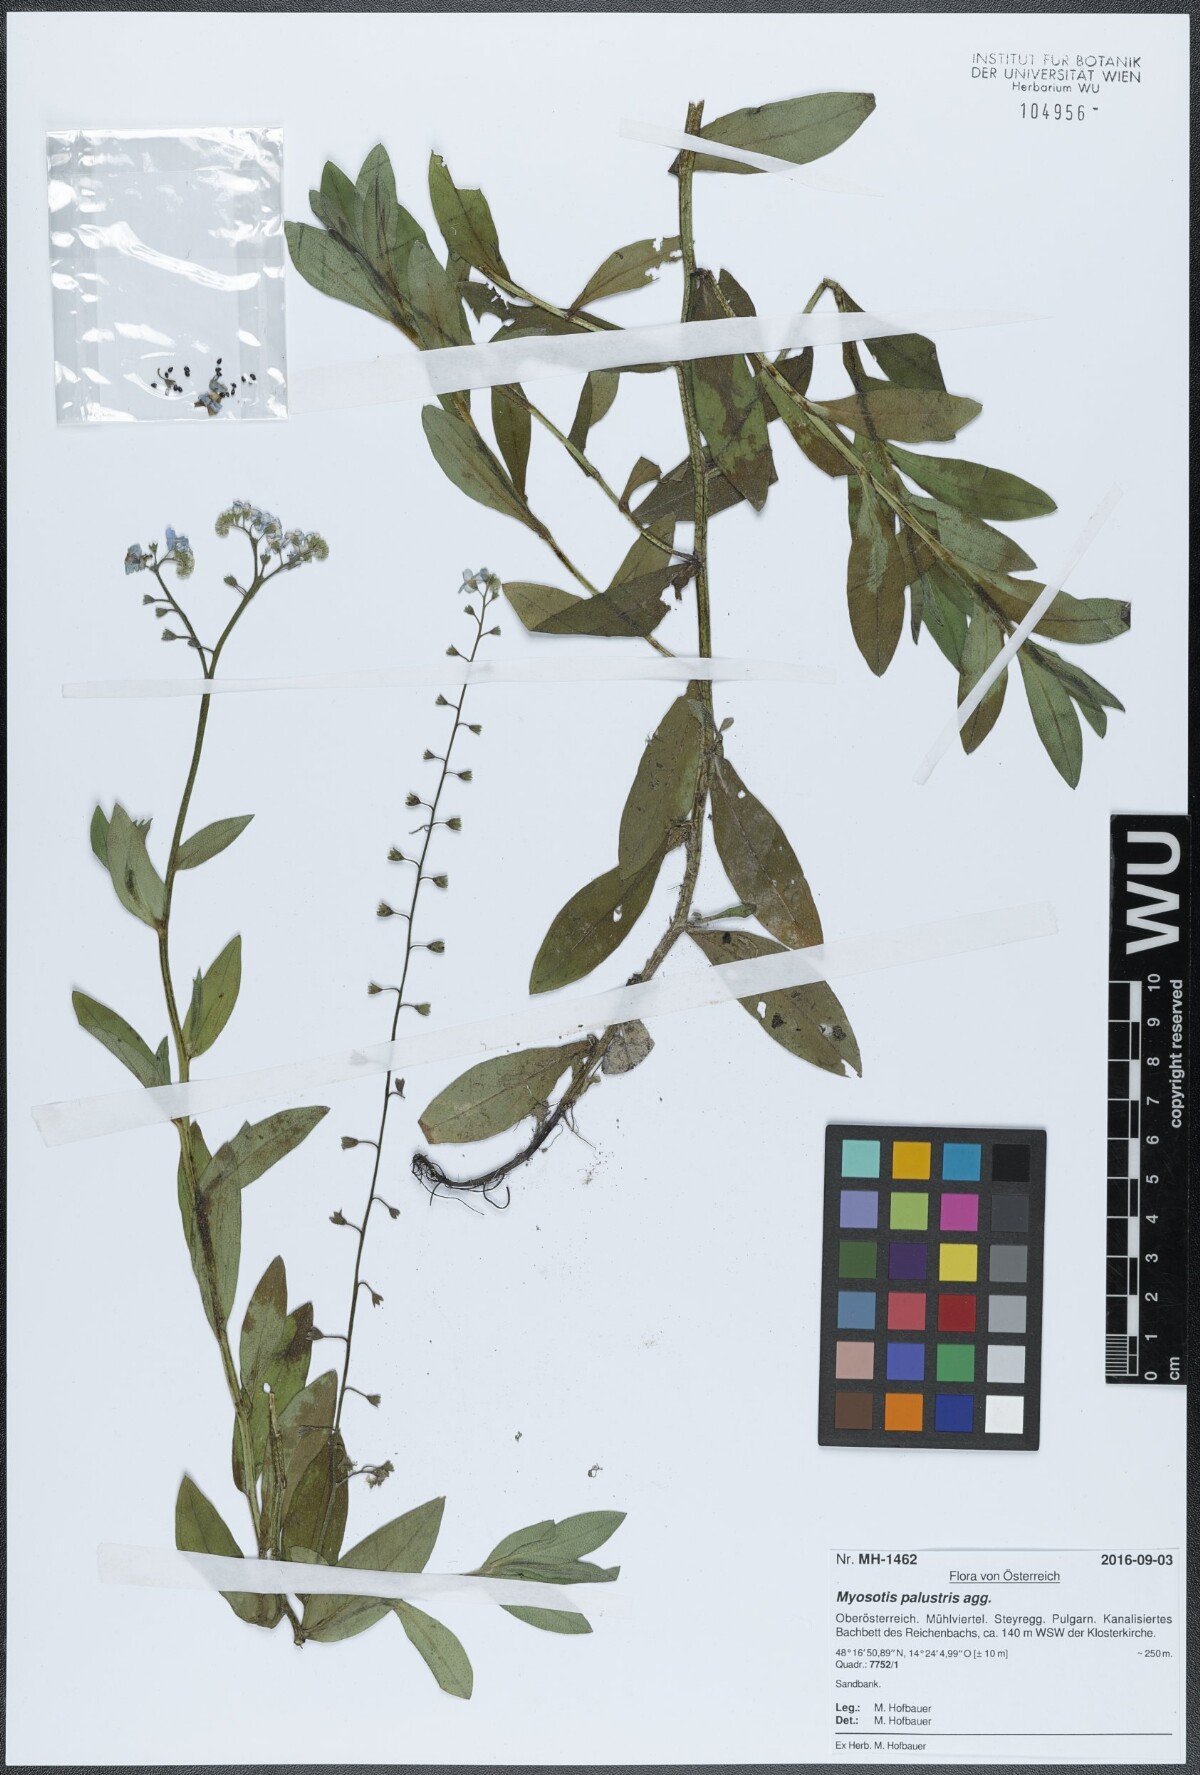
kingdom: Plantae
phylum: Tracheophyta
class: Magnoliopsida
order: Boraginales
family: Boraginaceae
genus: Myosotis
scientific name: Myosotis scorpioides
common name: Water forget-me-not
